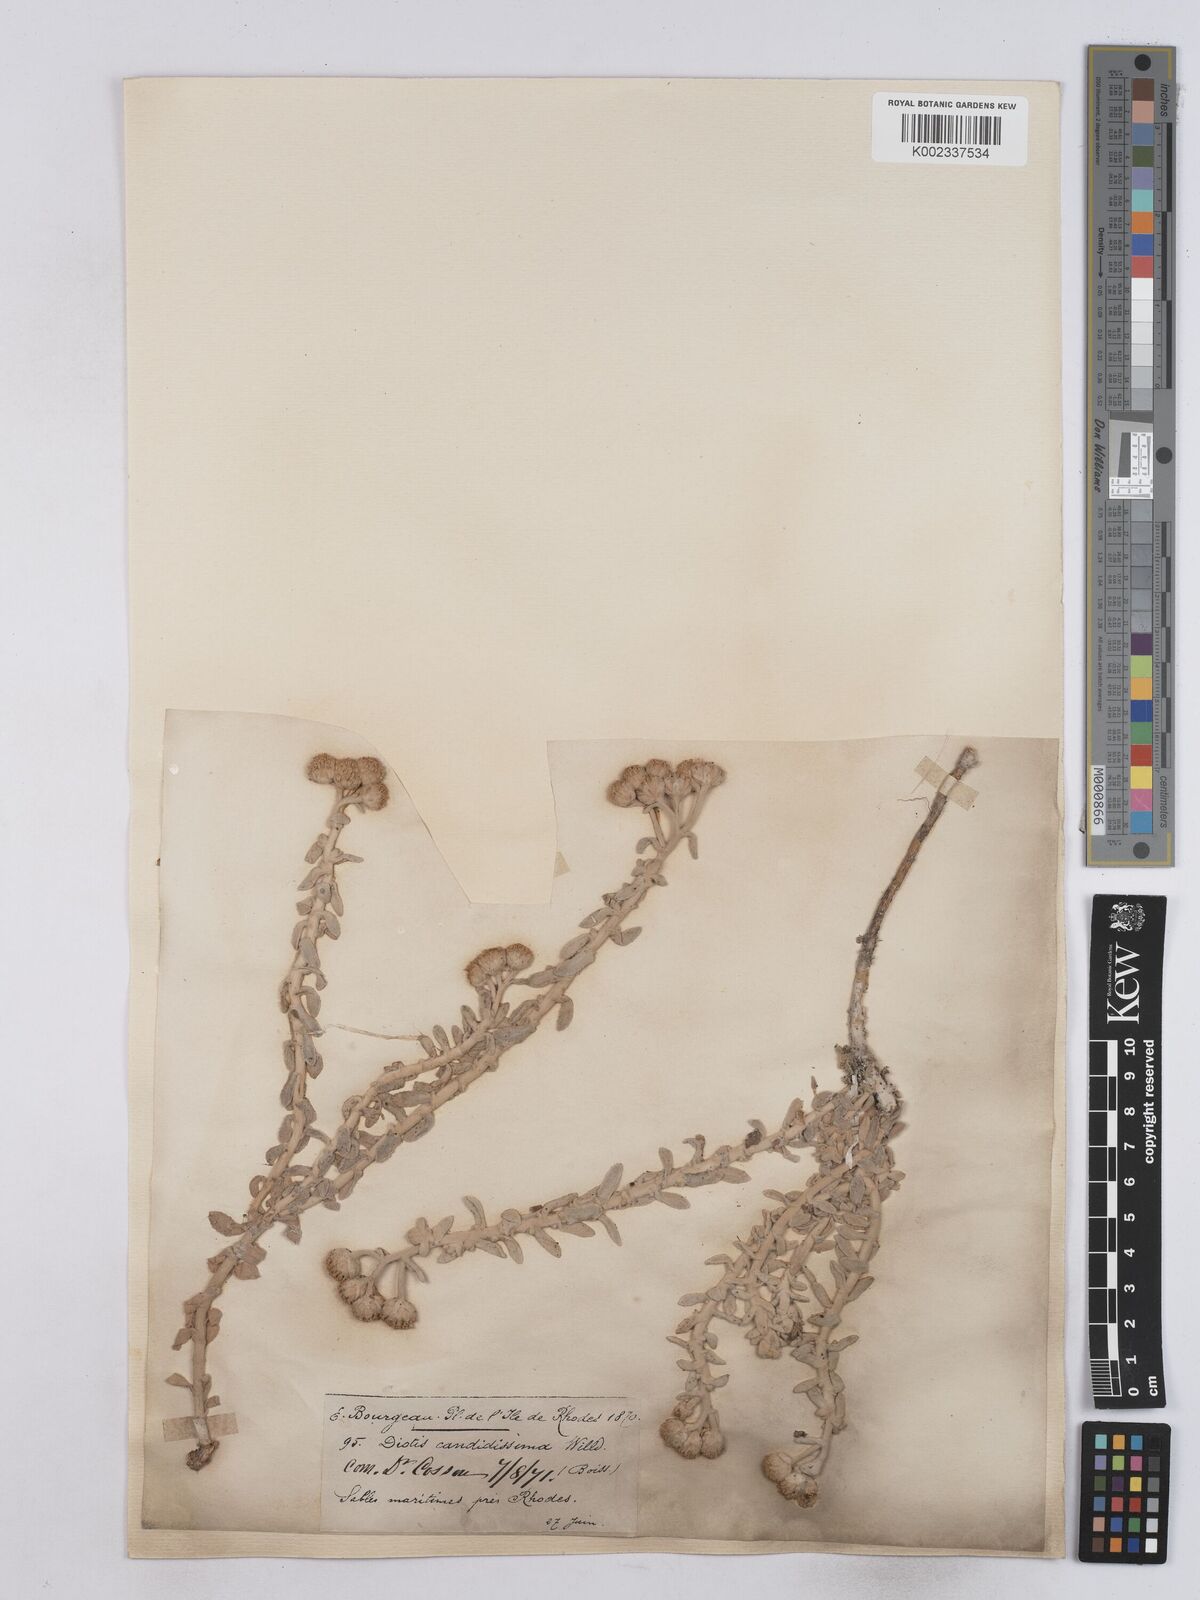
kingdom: Plantae
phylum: Tracheophyta
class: Magnoliopsida
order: Asterales
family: Asteraceae
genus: Achillea
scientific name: Achillea maritima
